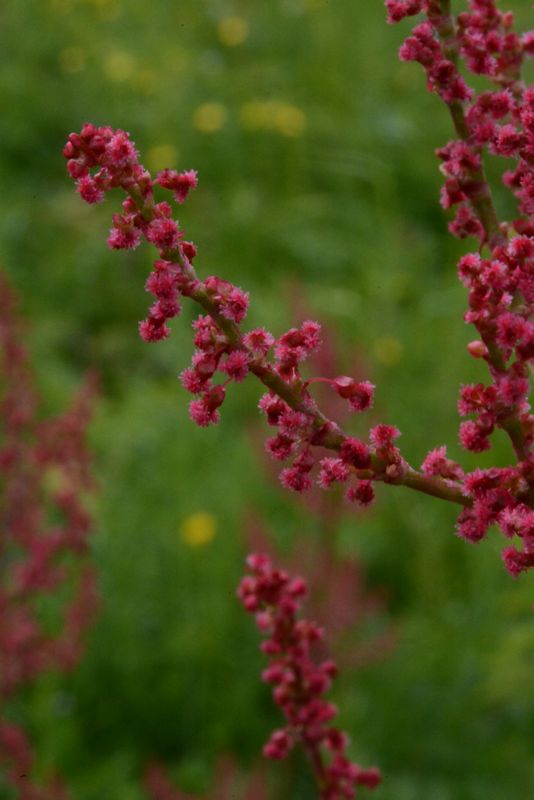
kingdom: Plantae
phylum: Tracheophyta
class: Magnoliopsida
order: Caryophyllales
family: Polygonaceae
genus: Rumex
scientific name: Rumex thyrsiflorus
